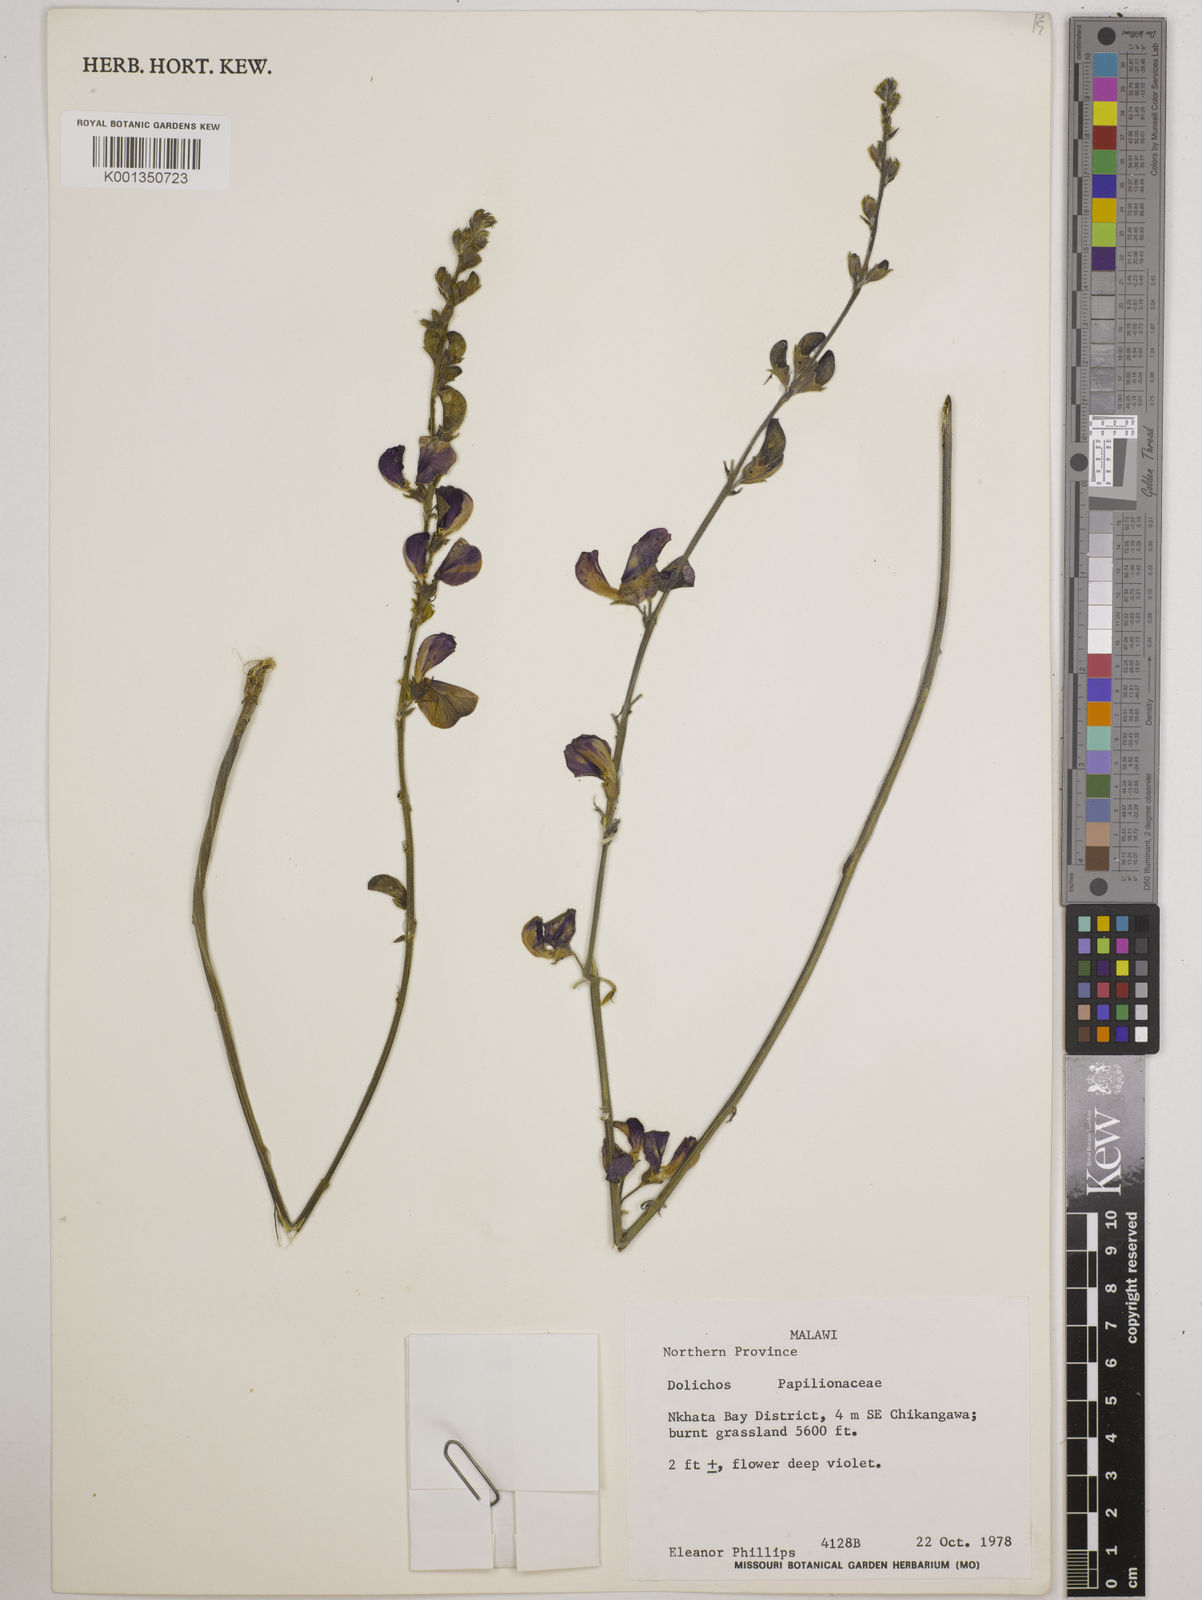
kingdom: Plantae
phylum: Tracheophyta
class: Magnoliopsida
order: Fabales
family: Fabaceae
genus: Dolichos
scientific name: Dolichos
